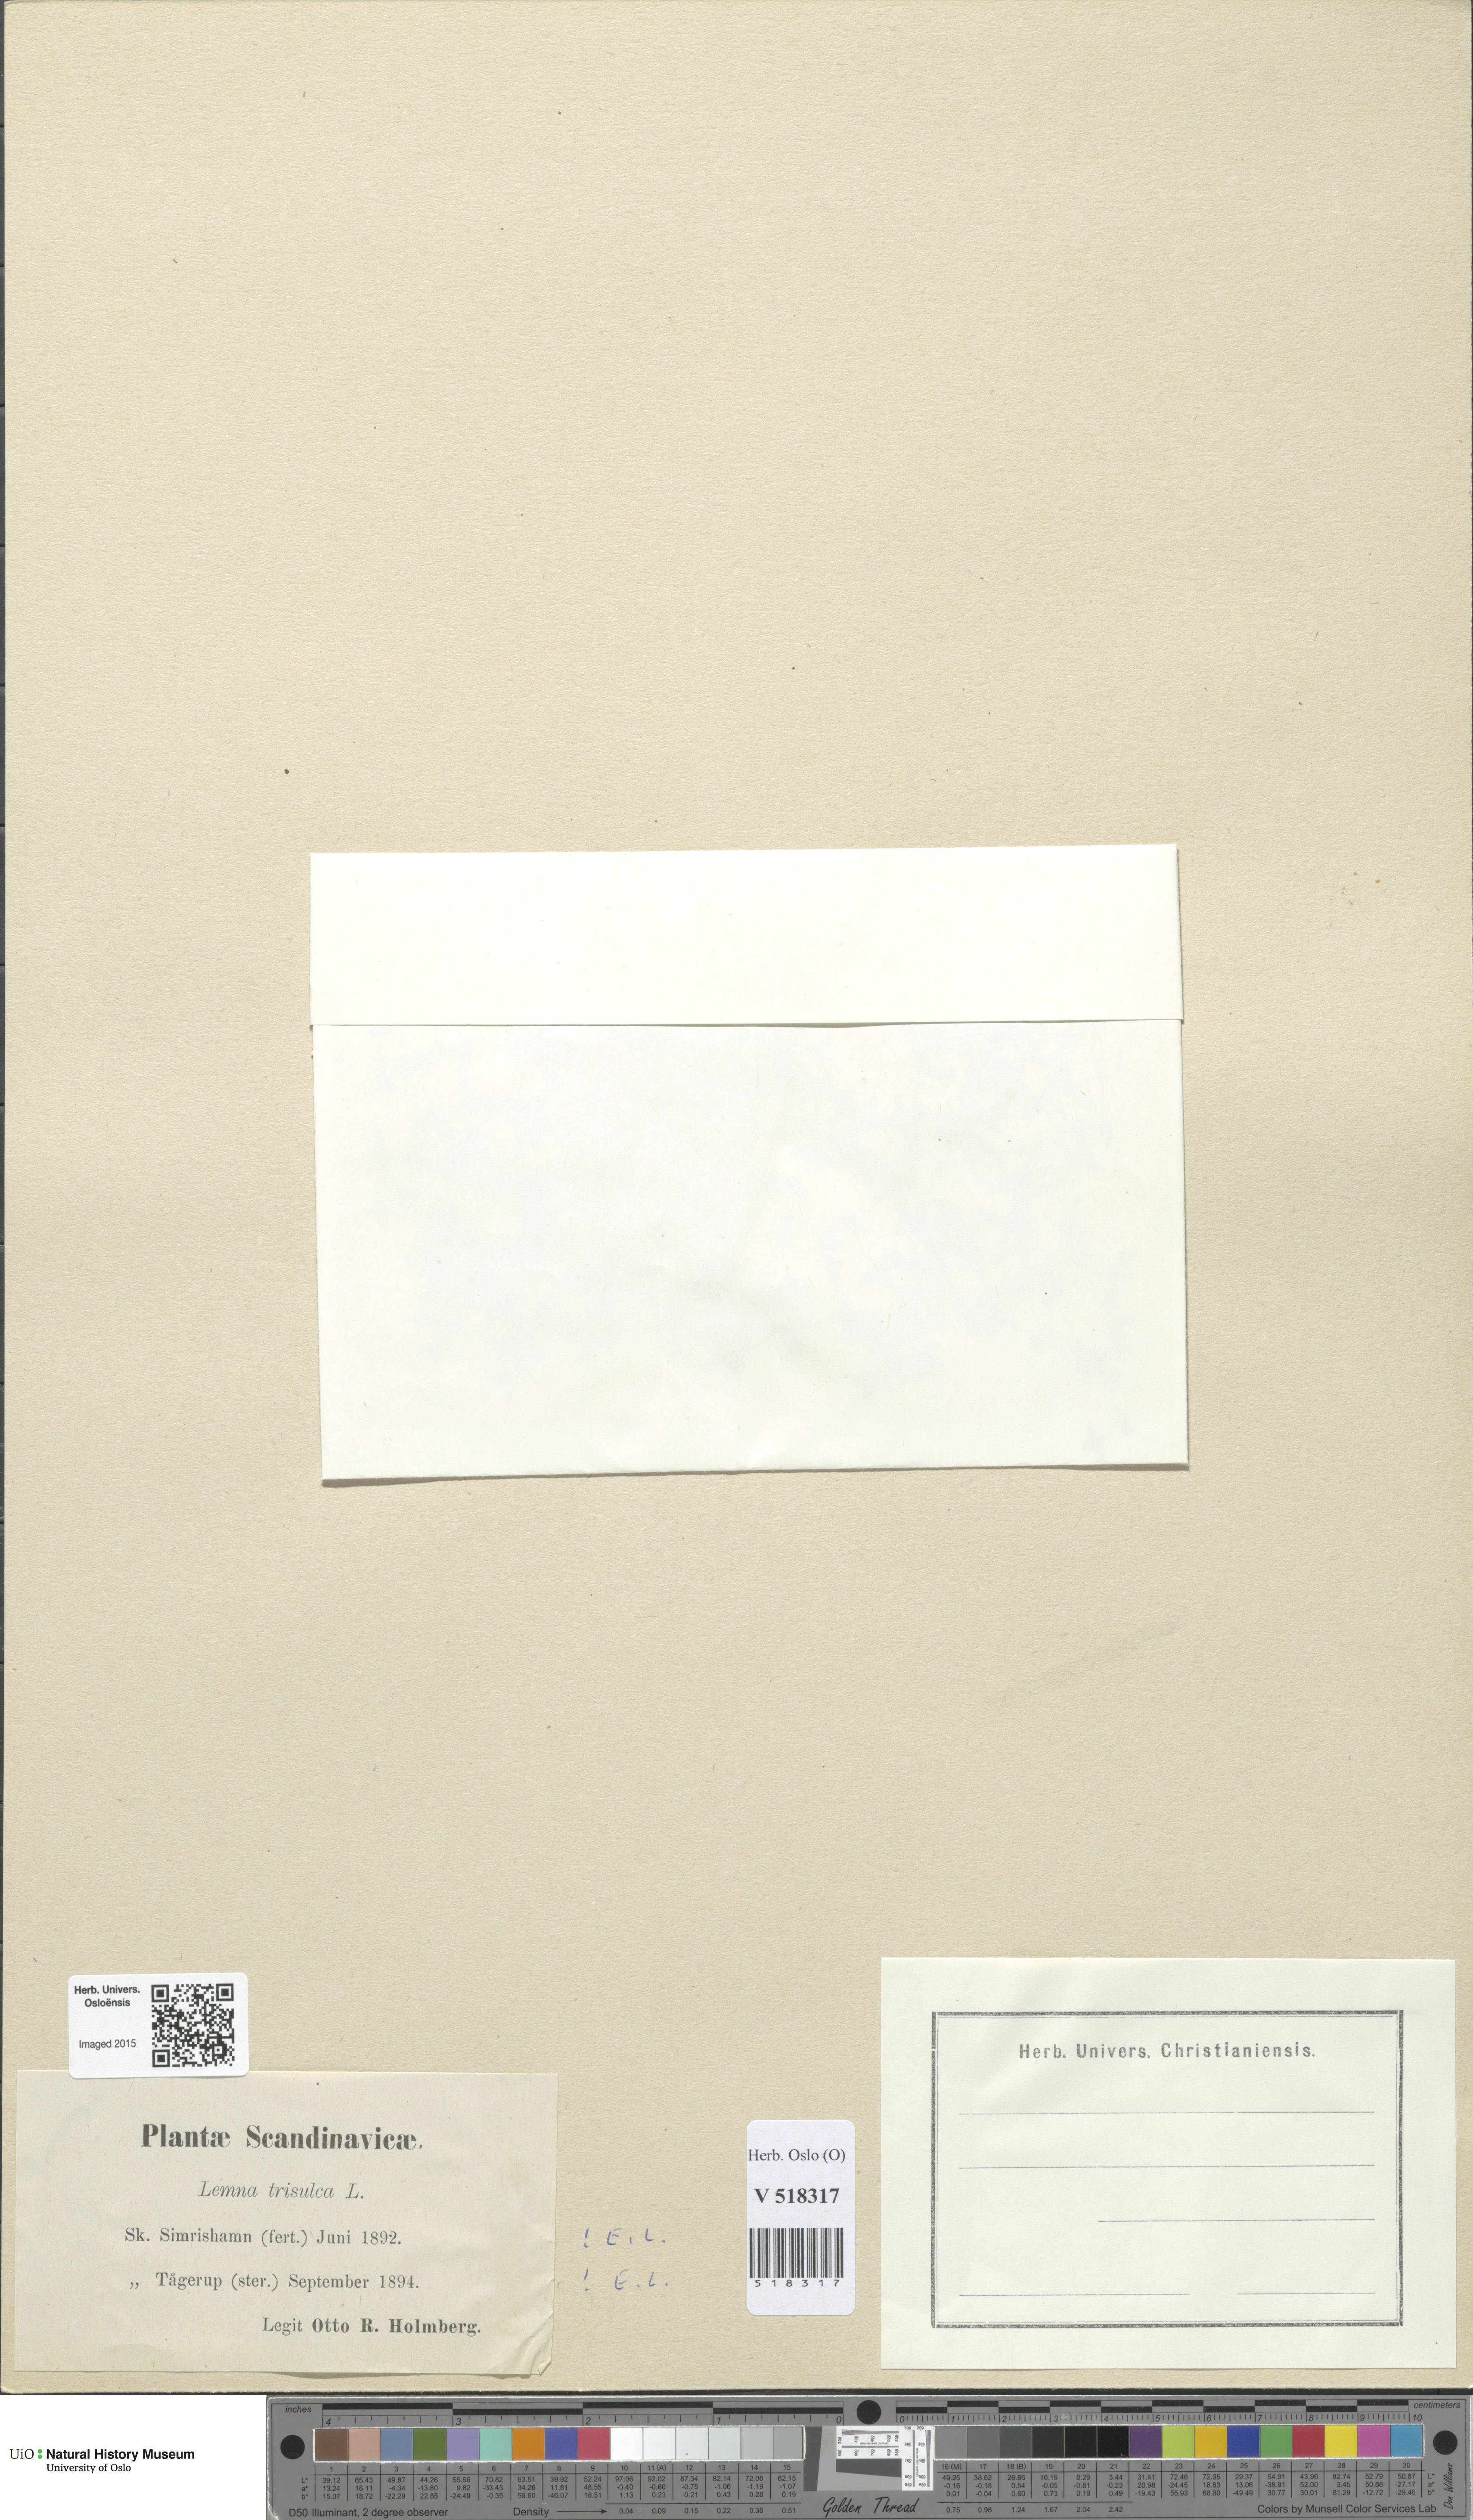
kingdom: Plantae
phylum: Tracheophyta
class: Liliopsida
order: Alismatales
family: Araceae
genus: Lemna
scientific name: Lemna trisulca
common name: Ivy-leaved duckweed
